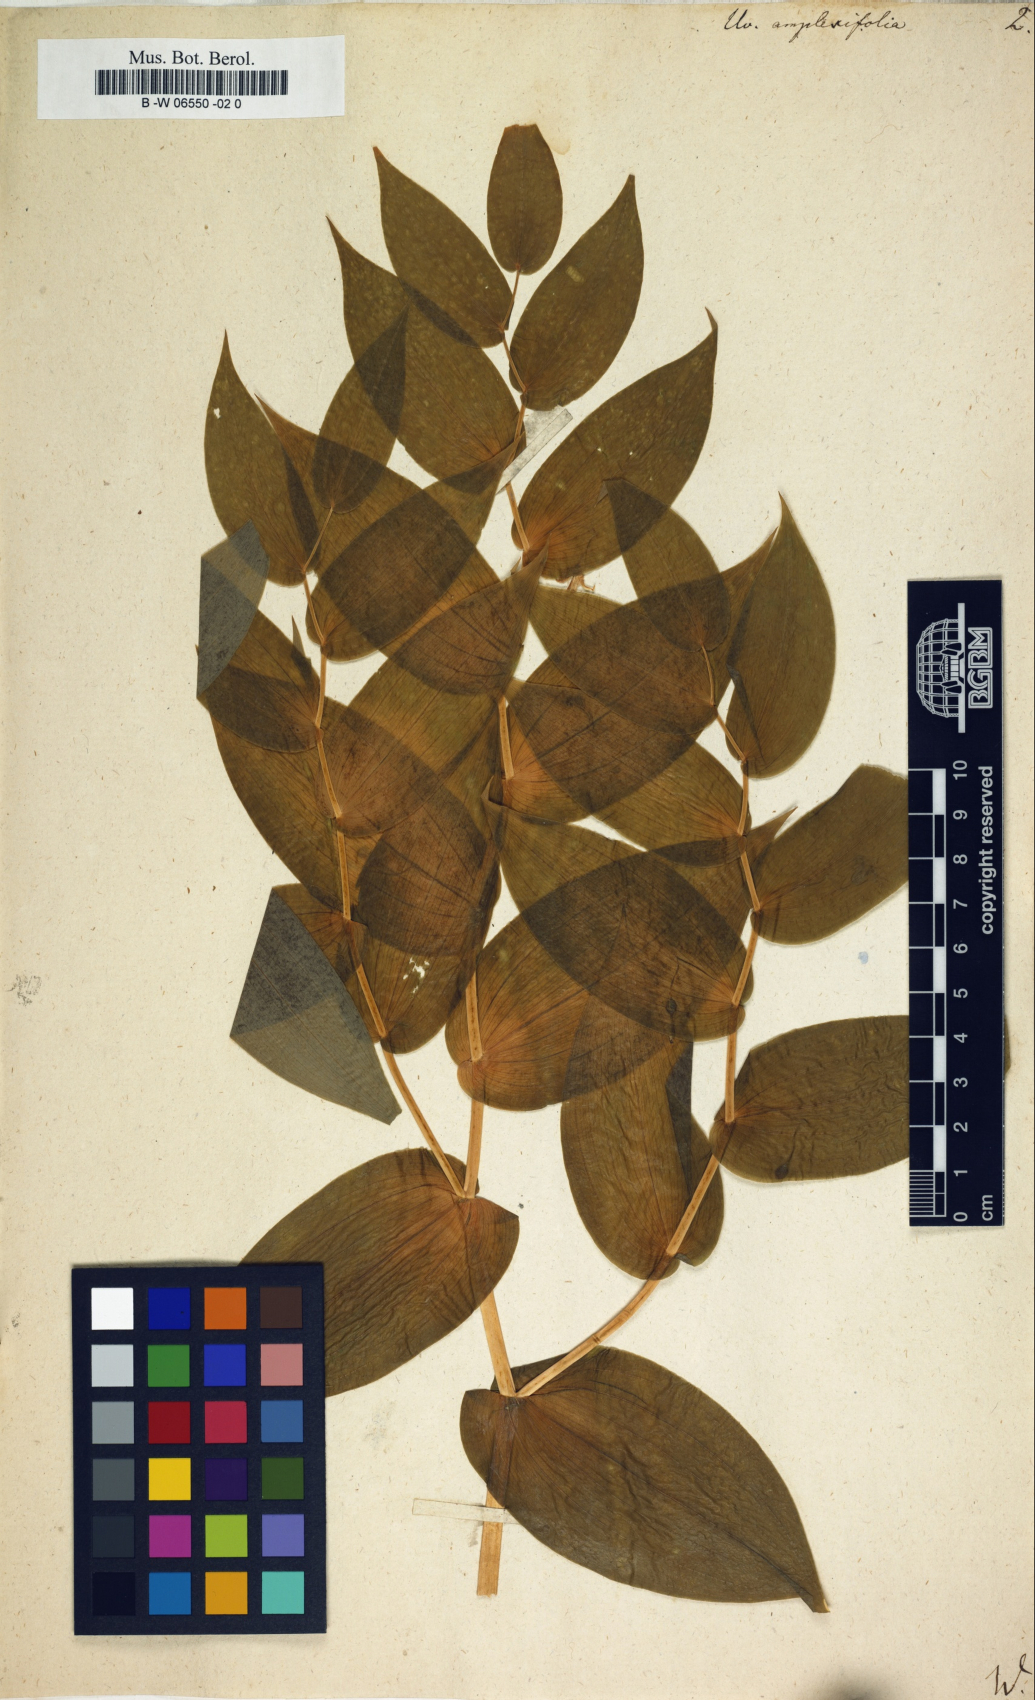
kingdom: Plantae
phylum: Tracheophyta
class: Liliopsida
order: Liliales
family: Liliaceae
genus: Streptopus
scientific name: Streptopus amplexifolius
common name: Clasp twisted stalk
